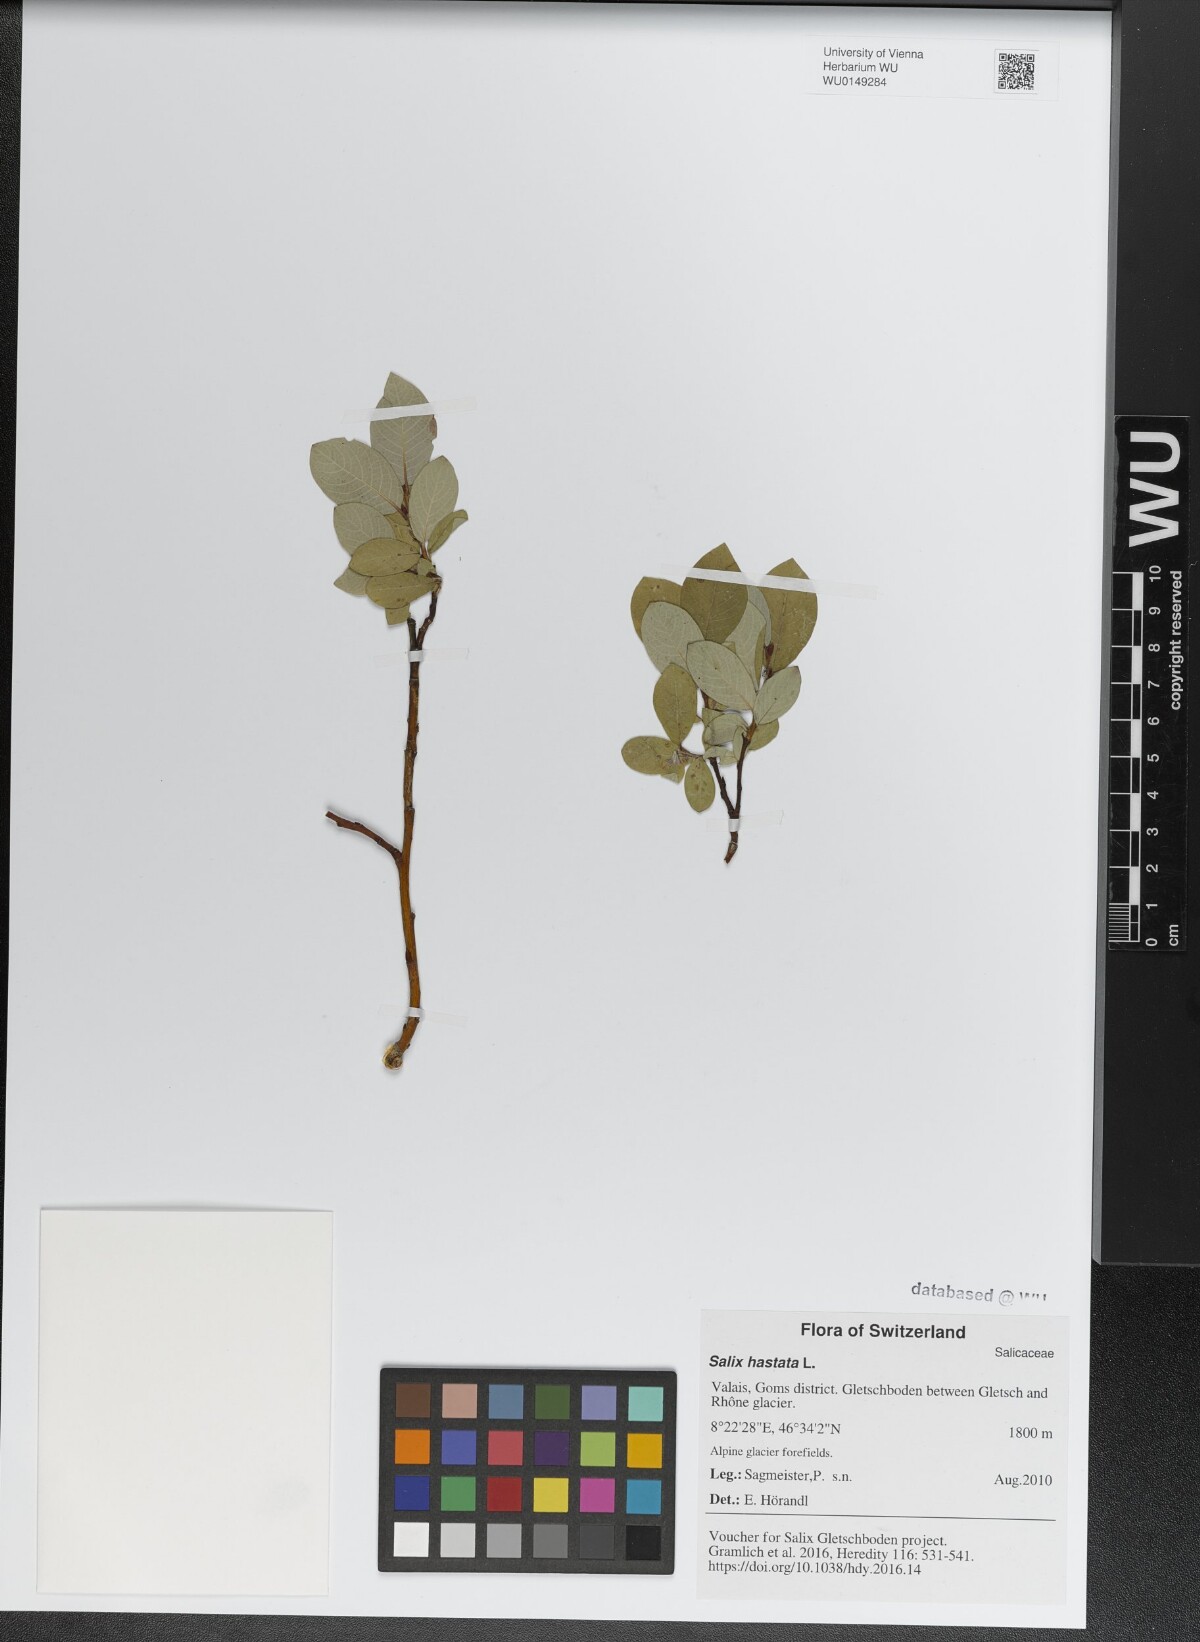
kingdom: Plantae
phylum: Tracheophyta
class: Magnoliopsida
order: Malpighiales
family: Salicaceae
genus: Salix
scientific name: Salix hastata
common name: Halberd willow
